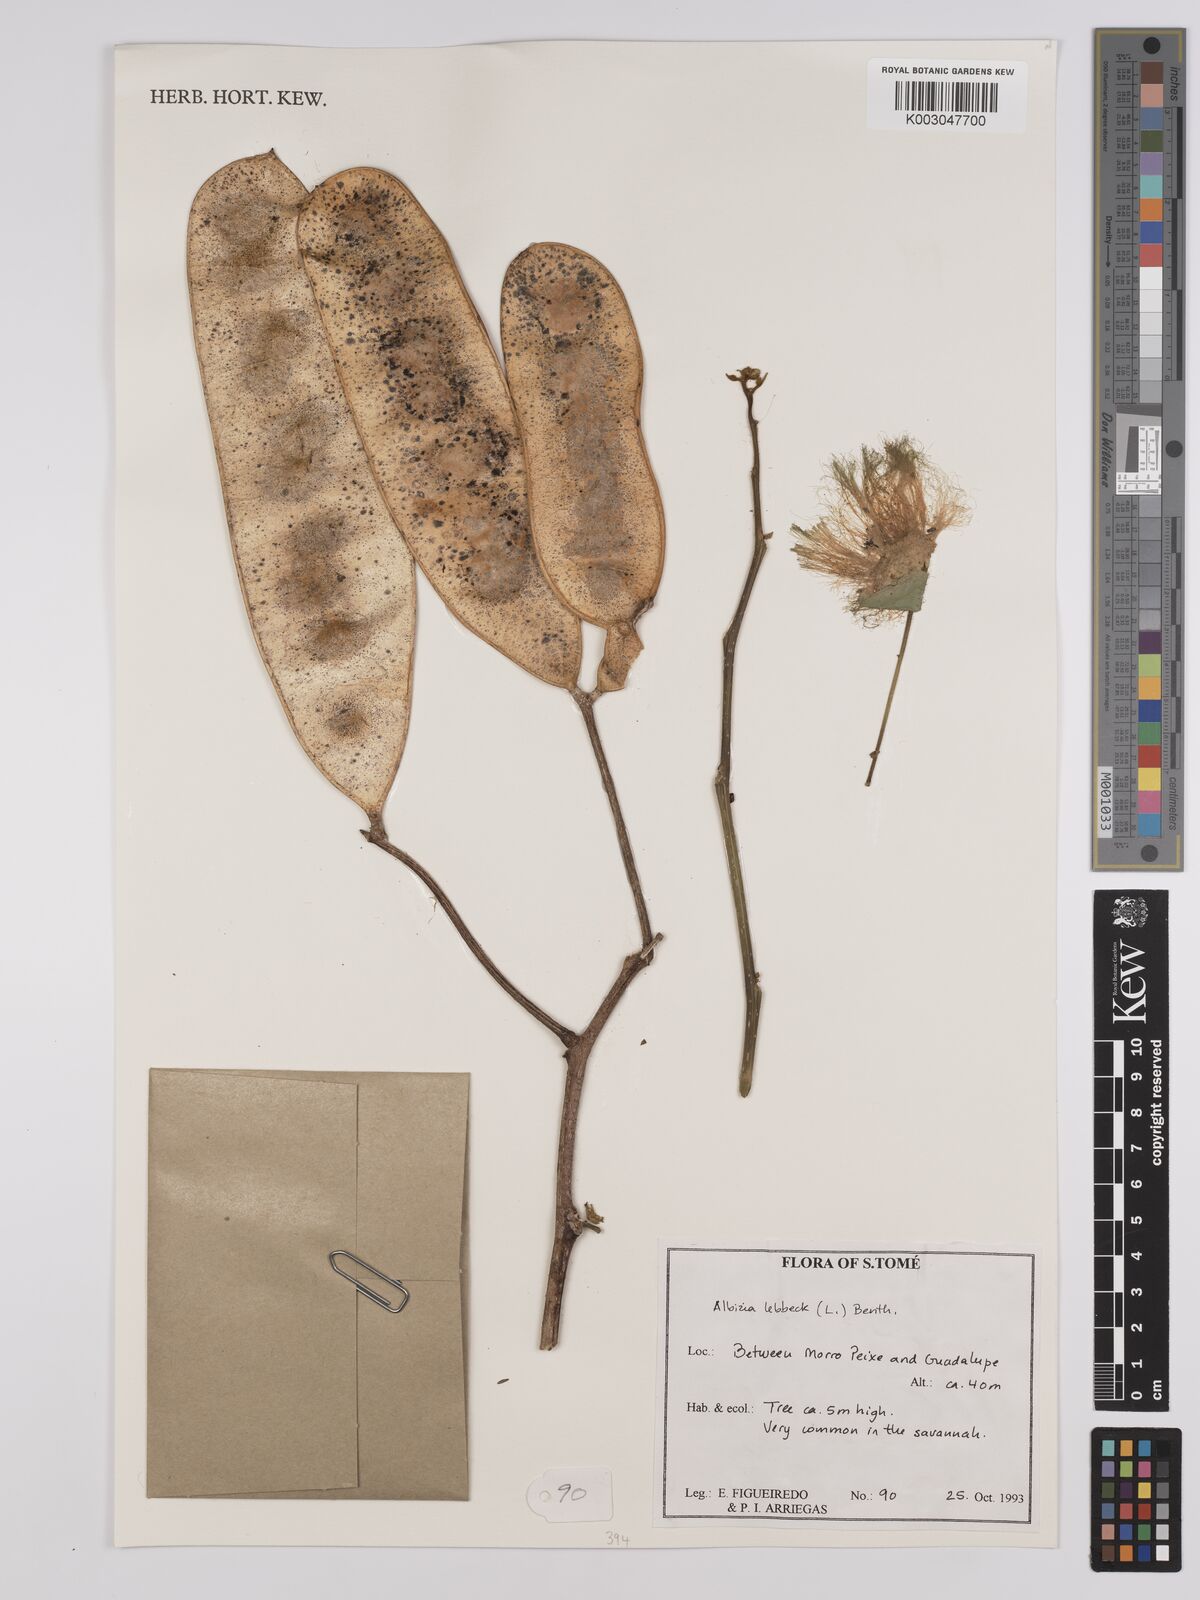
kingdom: Plantae
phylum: Tracheophyta
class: Magnoliopsida
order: Fabales
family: Fabaceae
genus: Albizia
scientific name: Albizia lebbeck
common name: Woman's tongue
